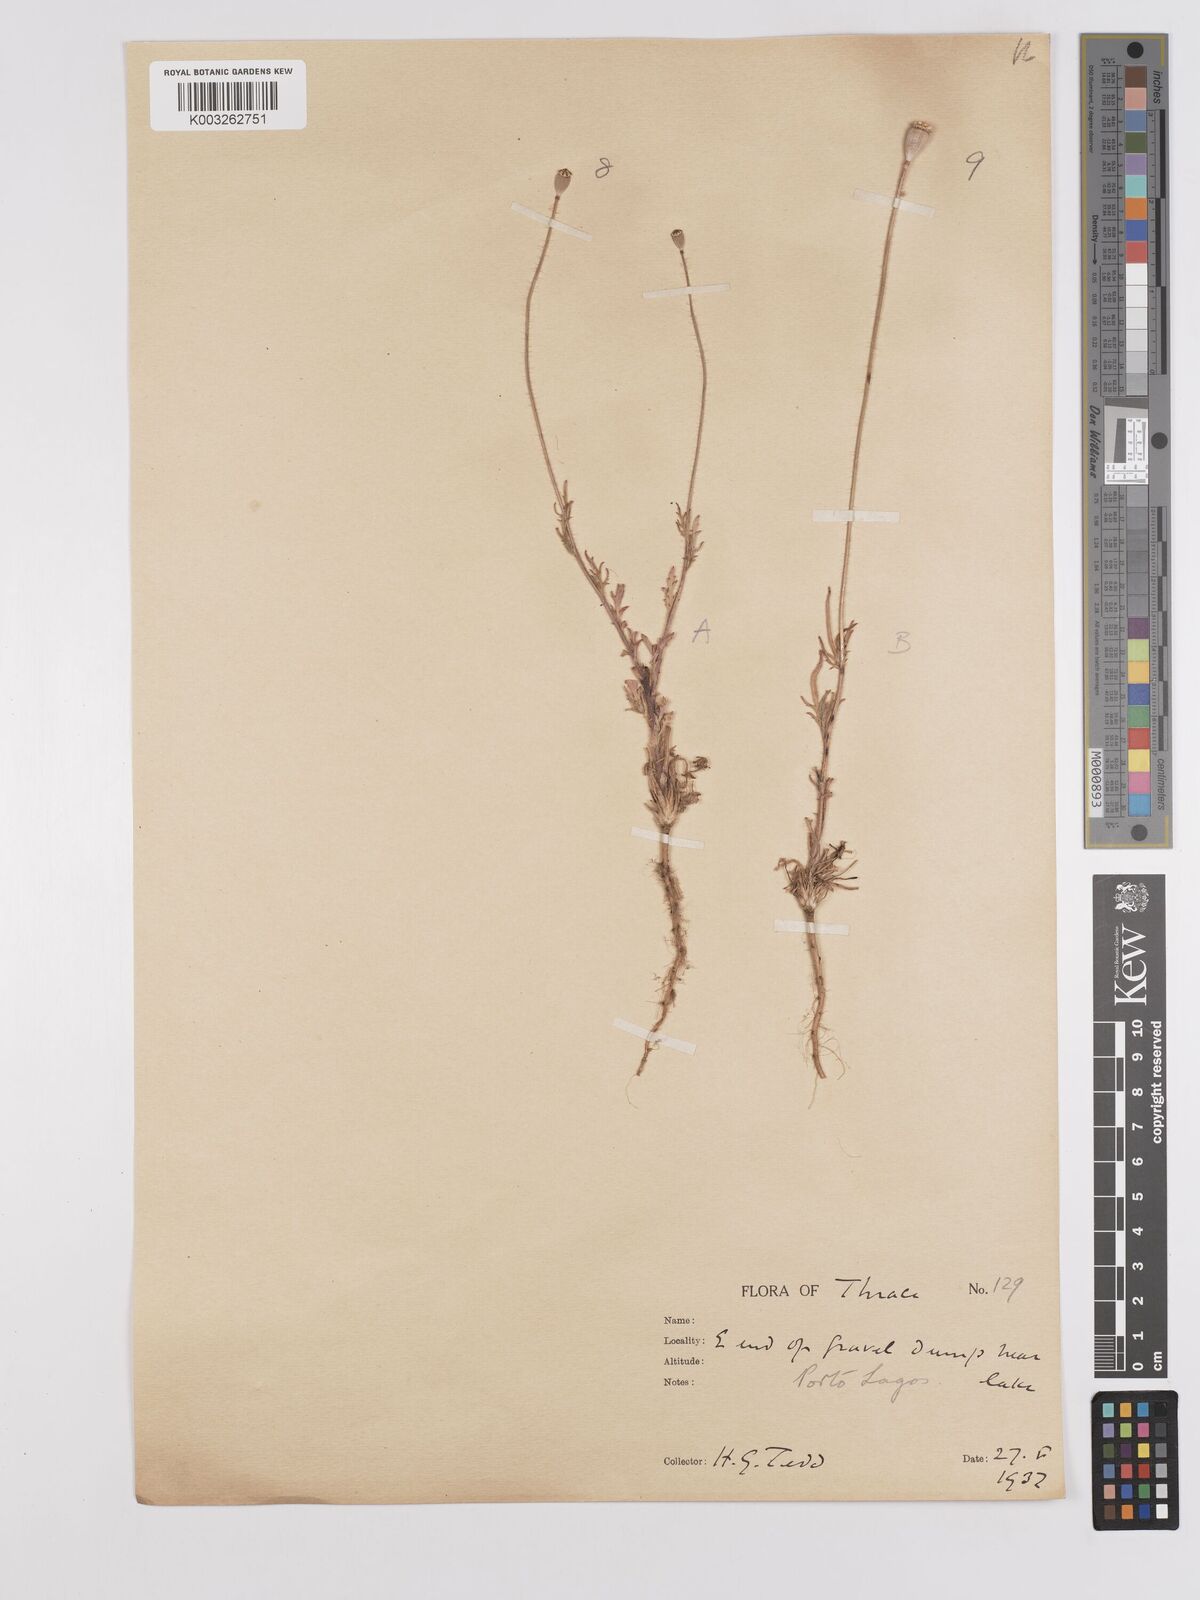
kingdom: Plantae
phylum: Tracheophyta
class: Magnoliopsida
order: Ranunculales
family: Papaveraceae
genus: Papaver
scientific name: Papaver
